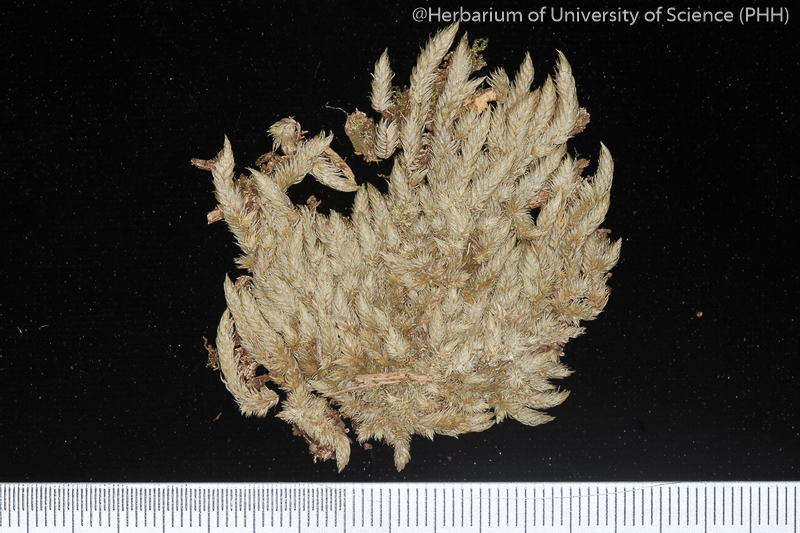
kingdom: Plantae
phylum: Bryophyta
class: Bryopsida
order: Dicranales
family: Leucobryaceae
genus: Leucobryum
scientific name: Leucobryum aduncum
